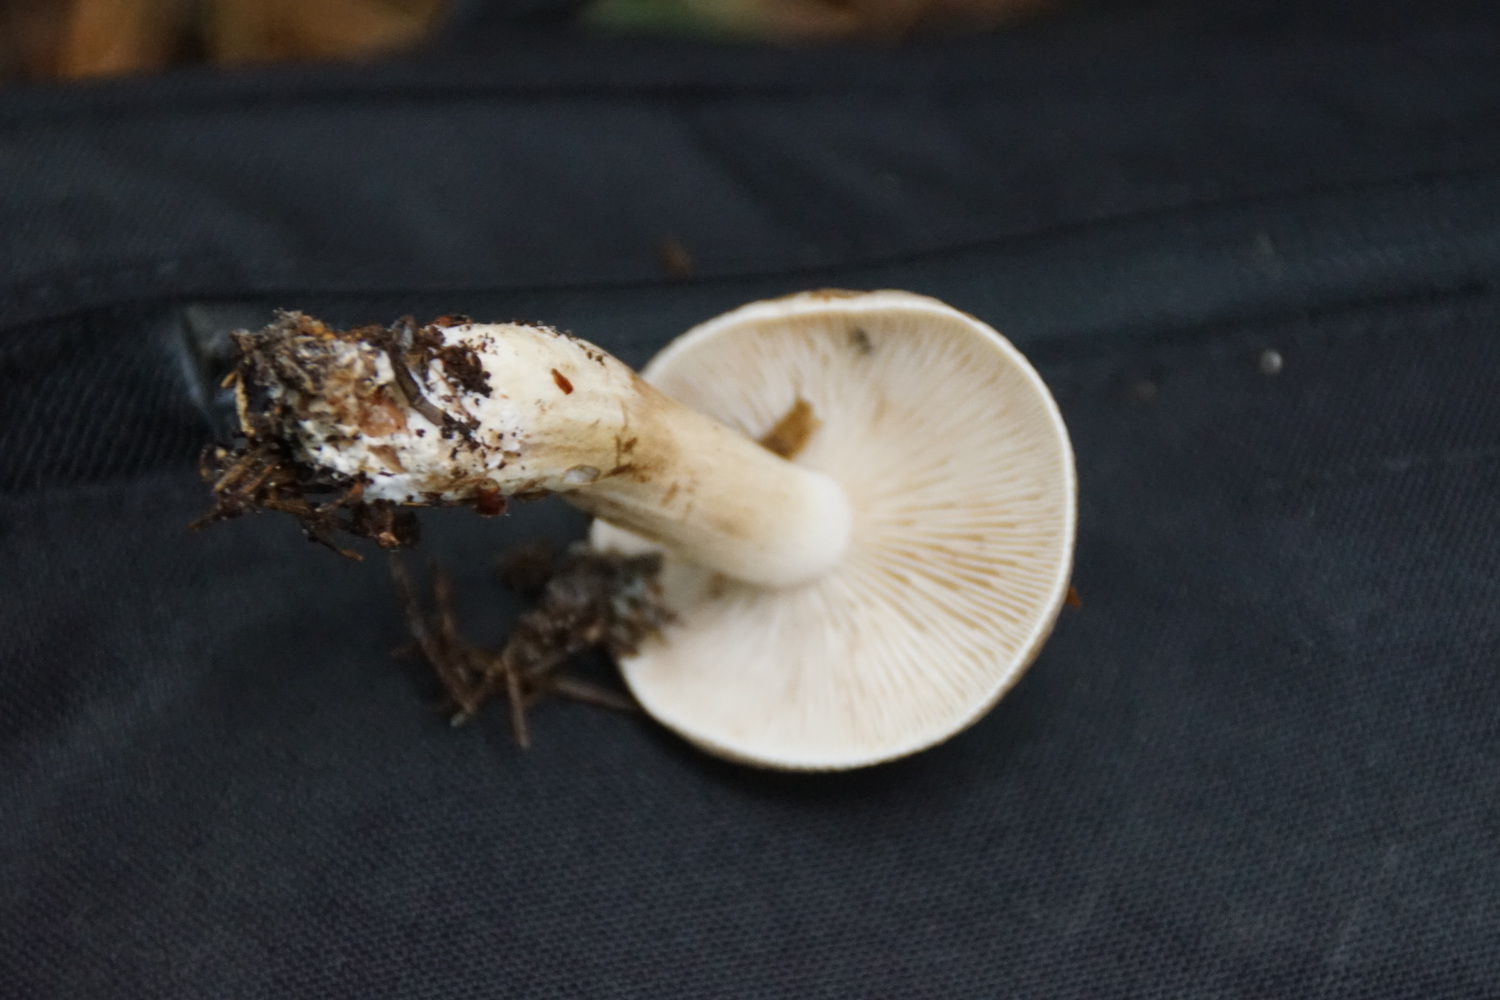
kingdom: Fungi
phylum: Basidiomycota
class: Agaricomycetes
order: Agaricales
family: Tricholomataceae
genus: Tricholoma
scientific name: Tricholoma imbricatum
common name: skællet ridderhat
